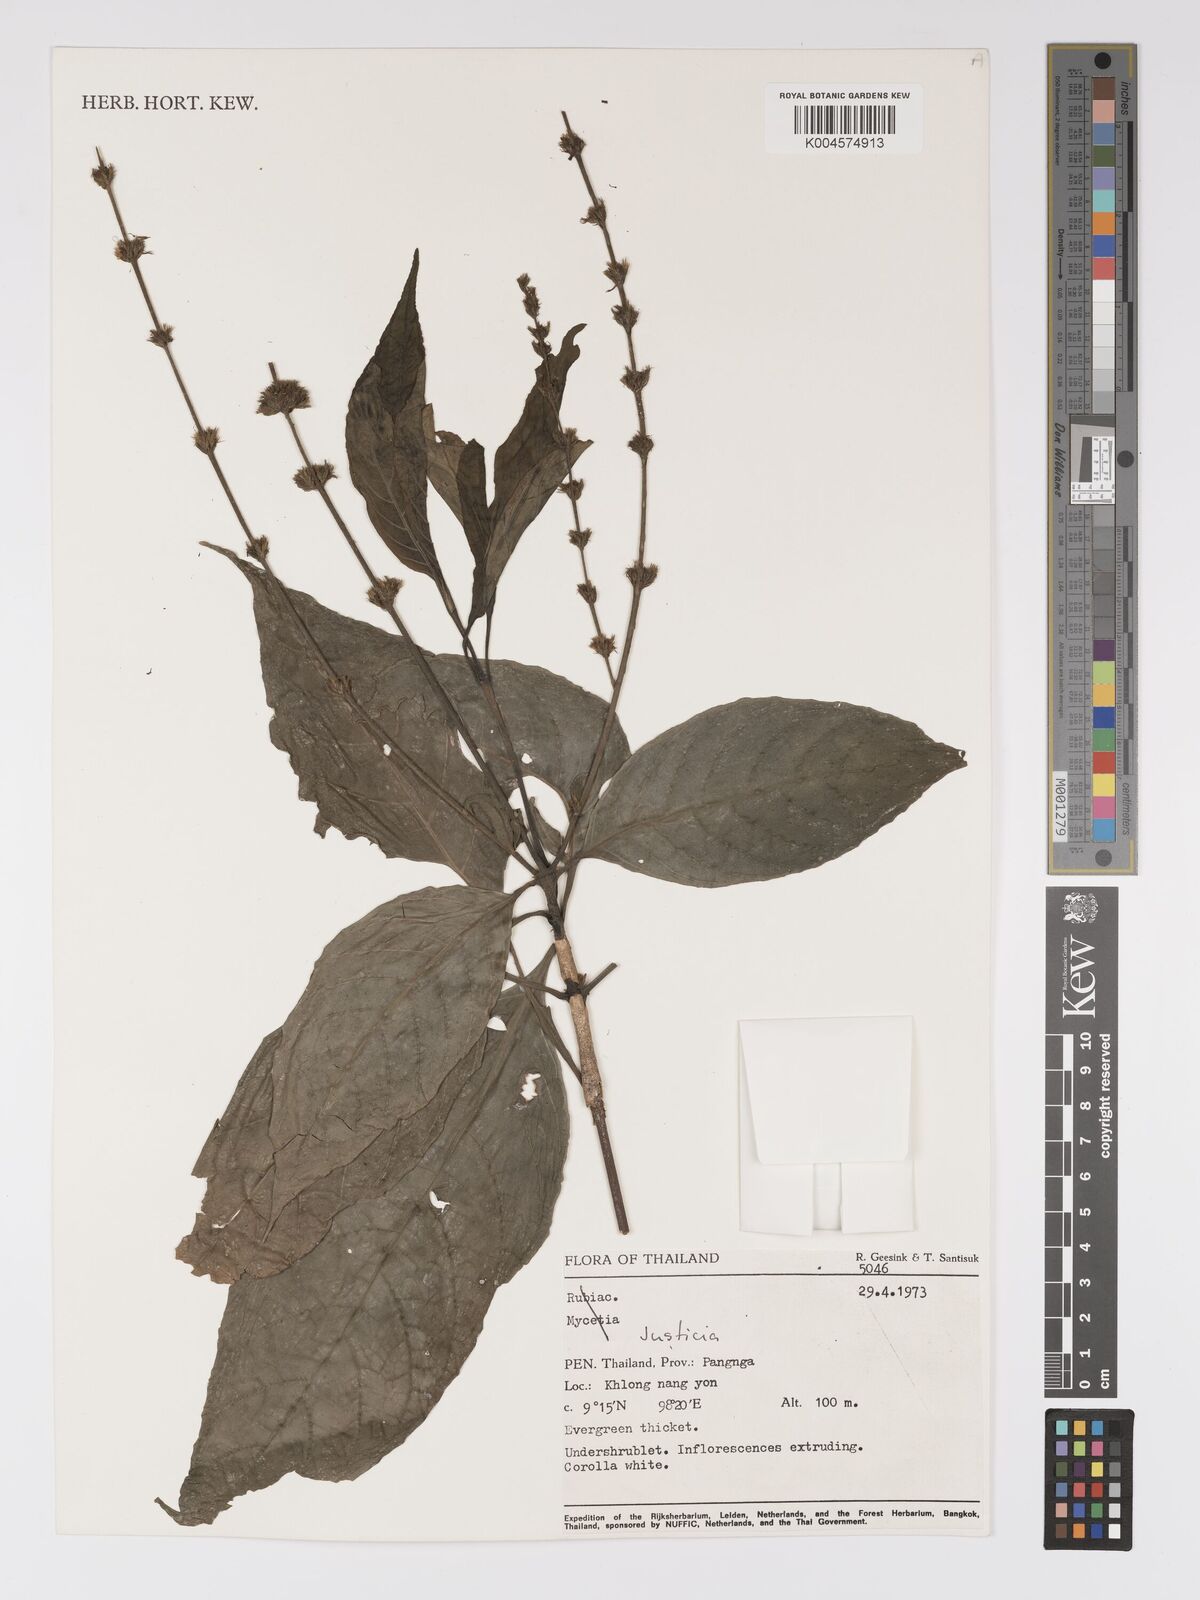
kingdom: Plantae
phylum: Tracheophyta
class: Magnoliopsida
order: Lamiales
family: Acanthaceae
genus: Pseuderanthemum
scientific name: Pseuderanthemum
